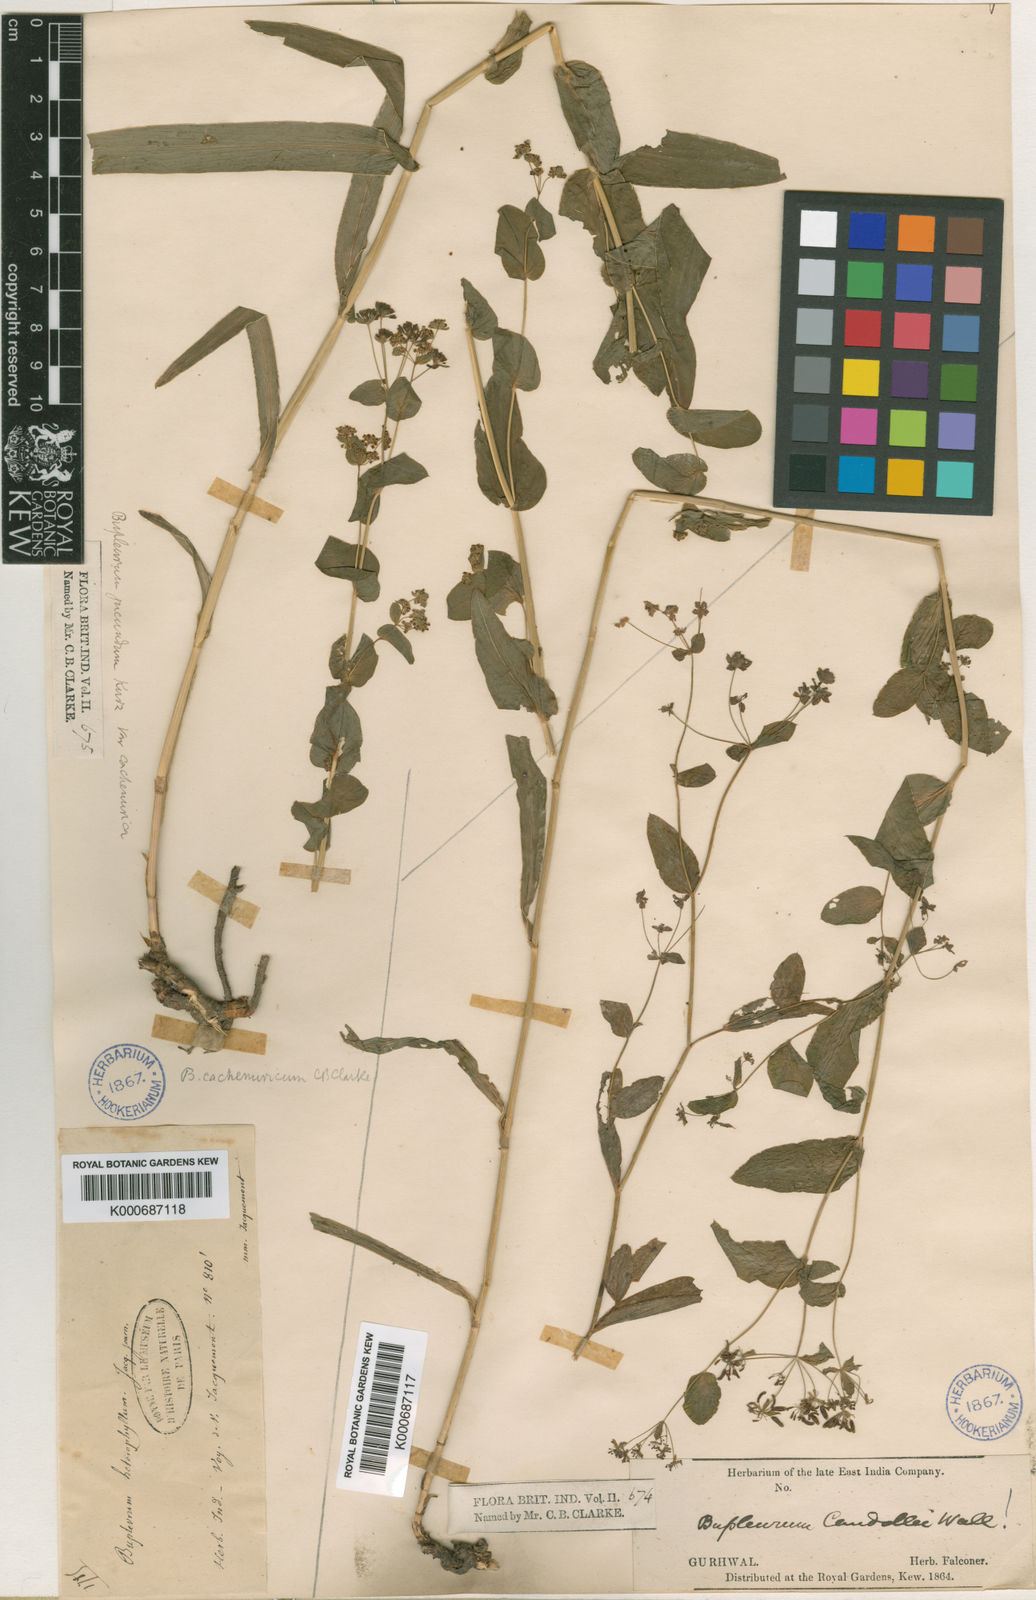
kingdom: Plantae
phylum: Tracheophyta
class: Magnoliopsida
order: Apiales
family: Apiaceae
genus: Bupleurum
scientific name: Bupleurum jucundum
